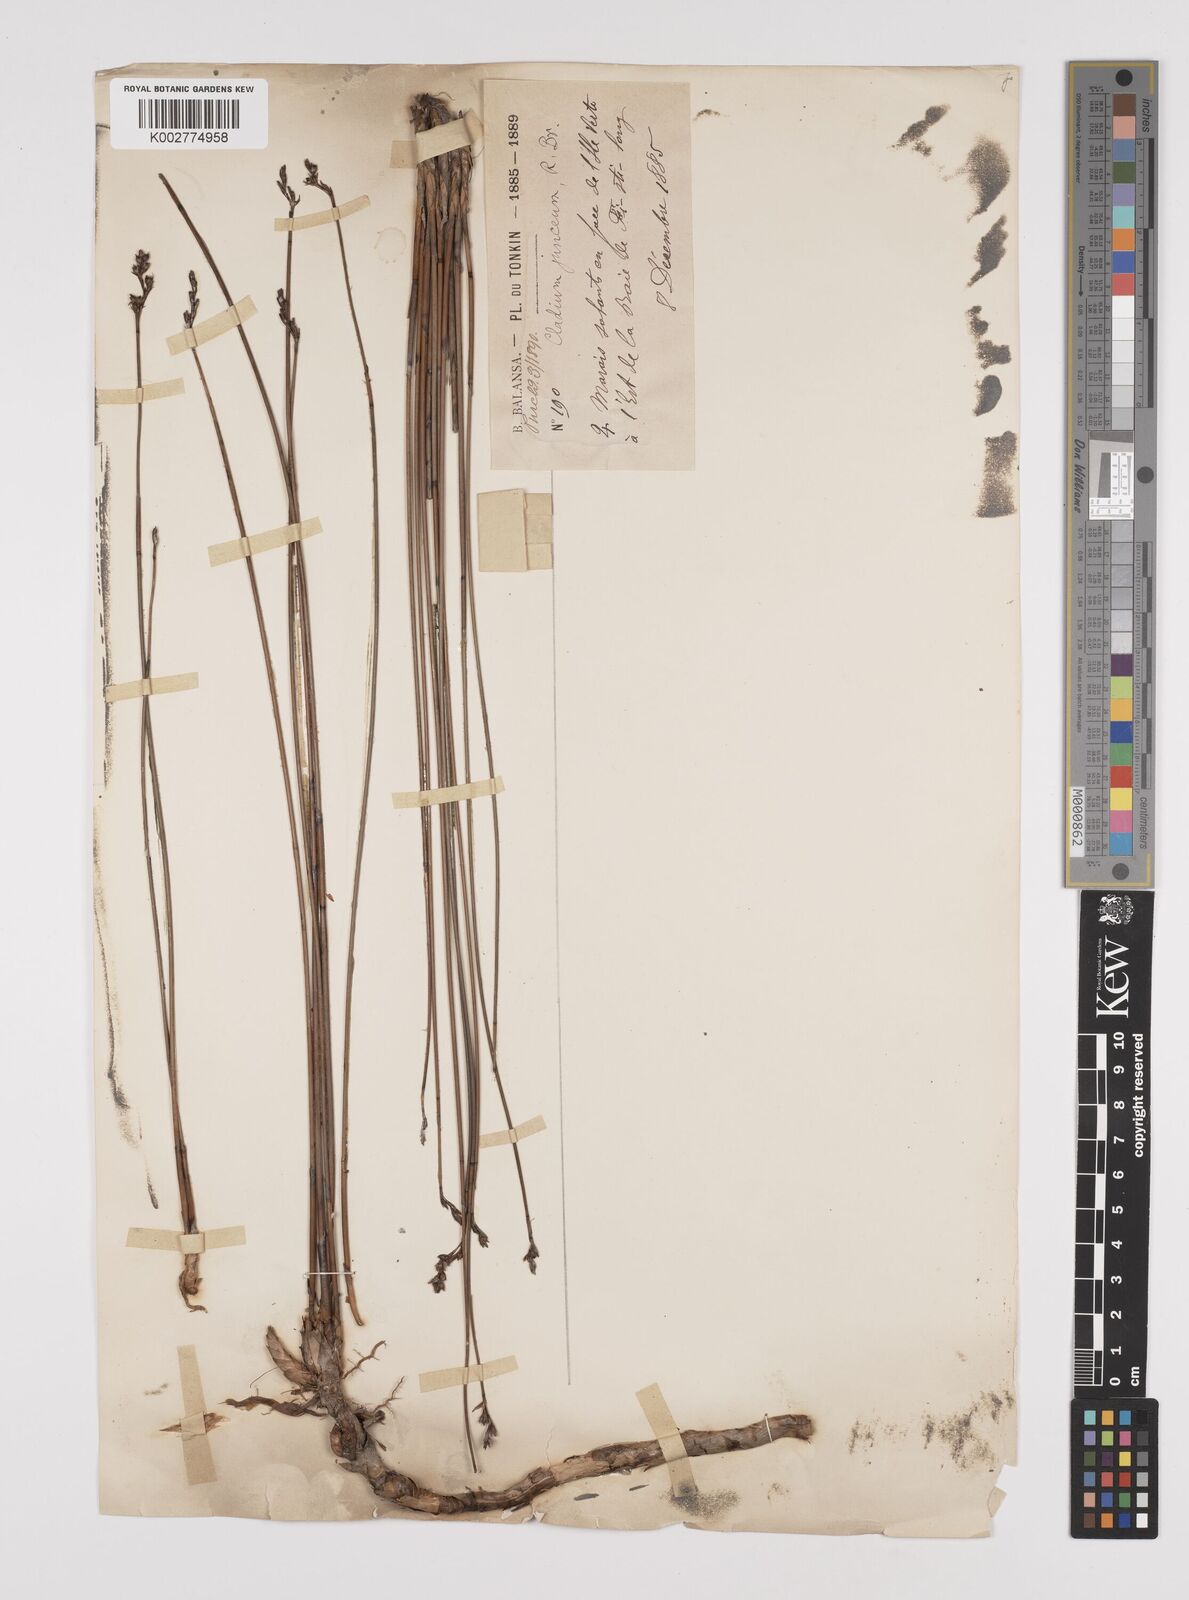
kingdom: Plantae
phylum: Tracheophyta
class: Liliopsida
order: Poales
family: Cyperaceae
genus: Machaerina
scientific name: Machaerina juncea
